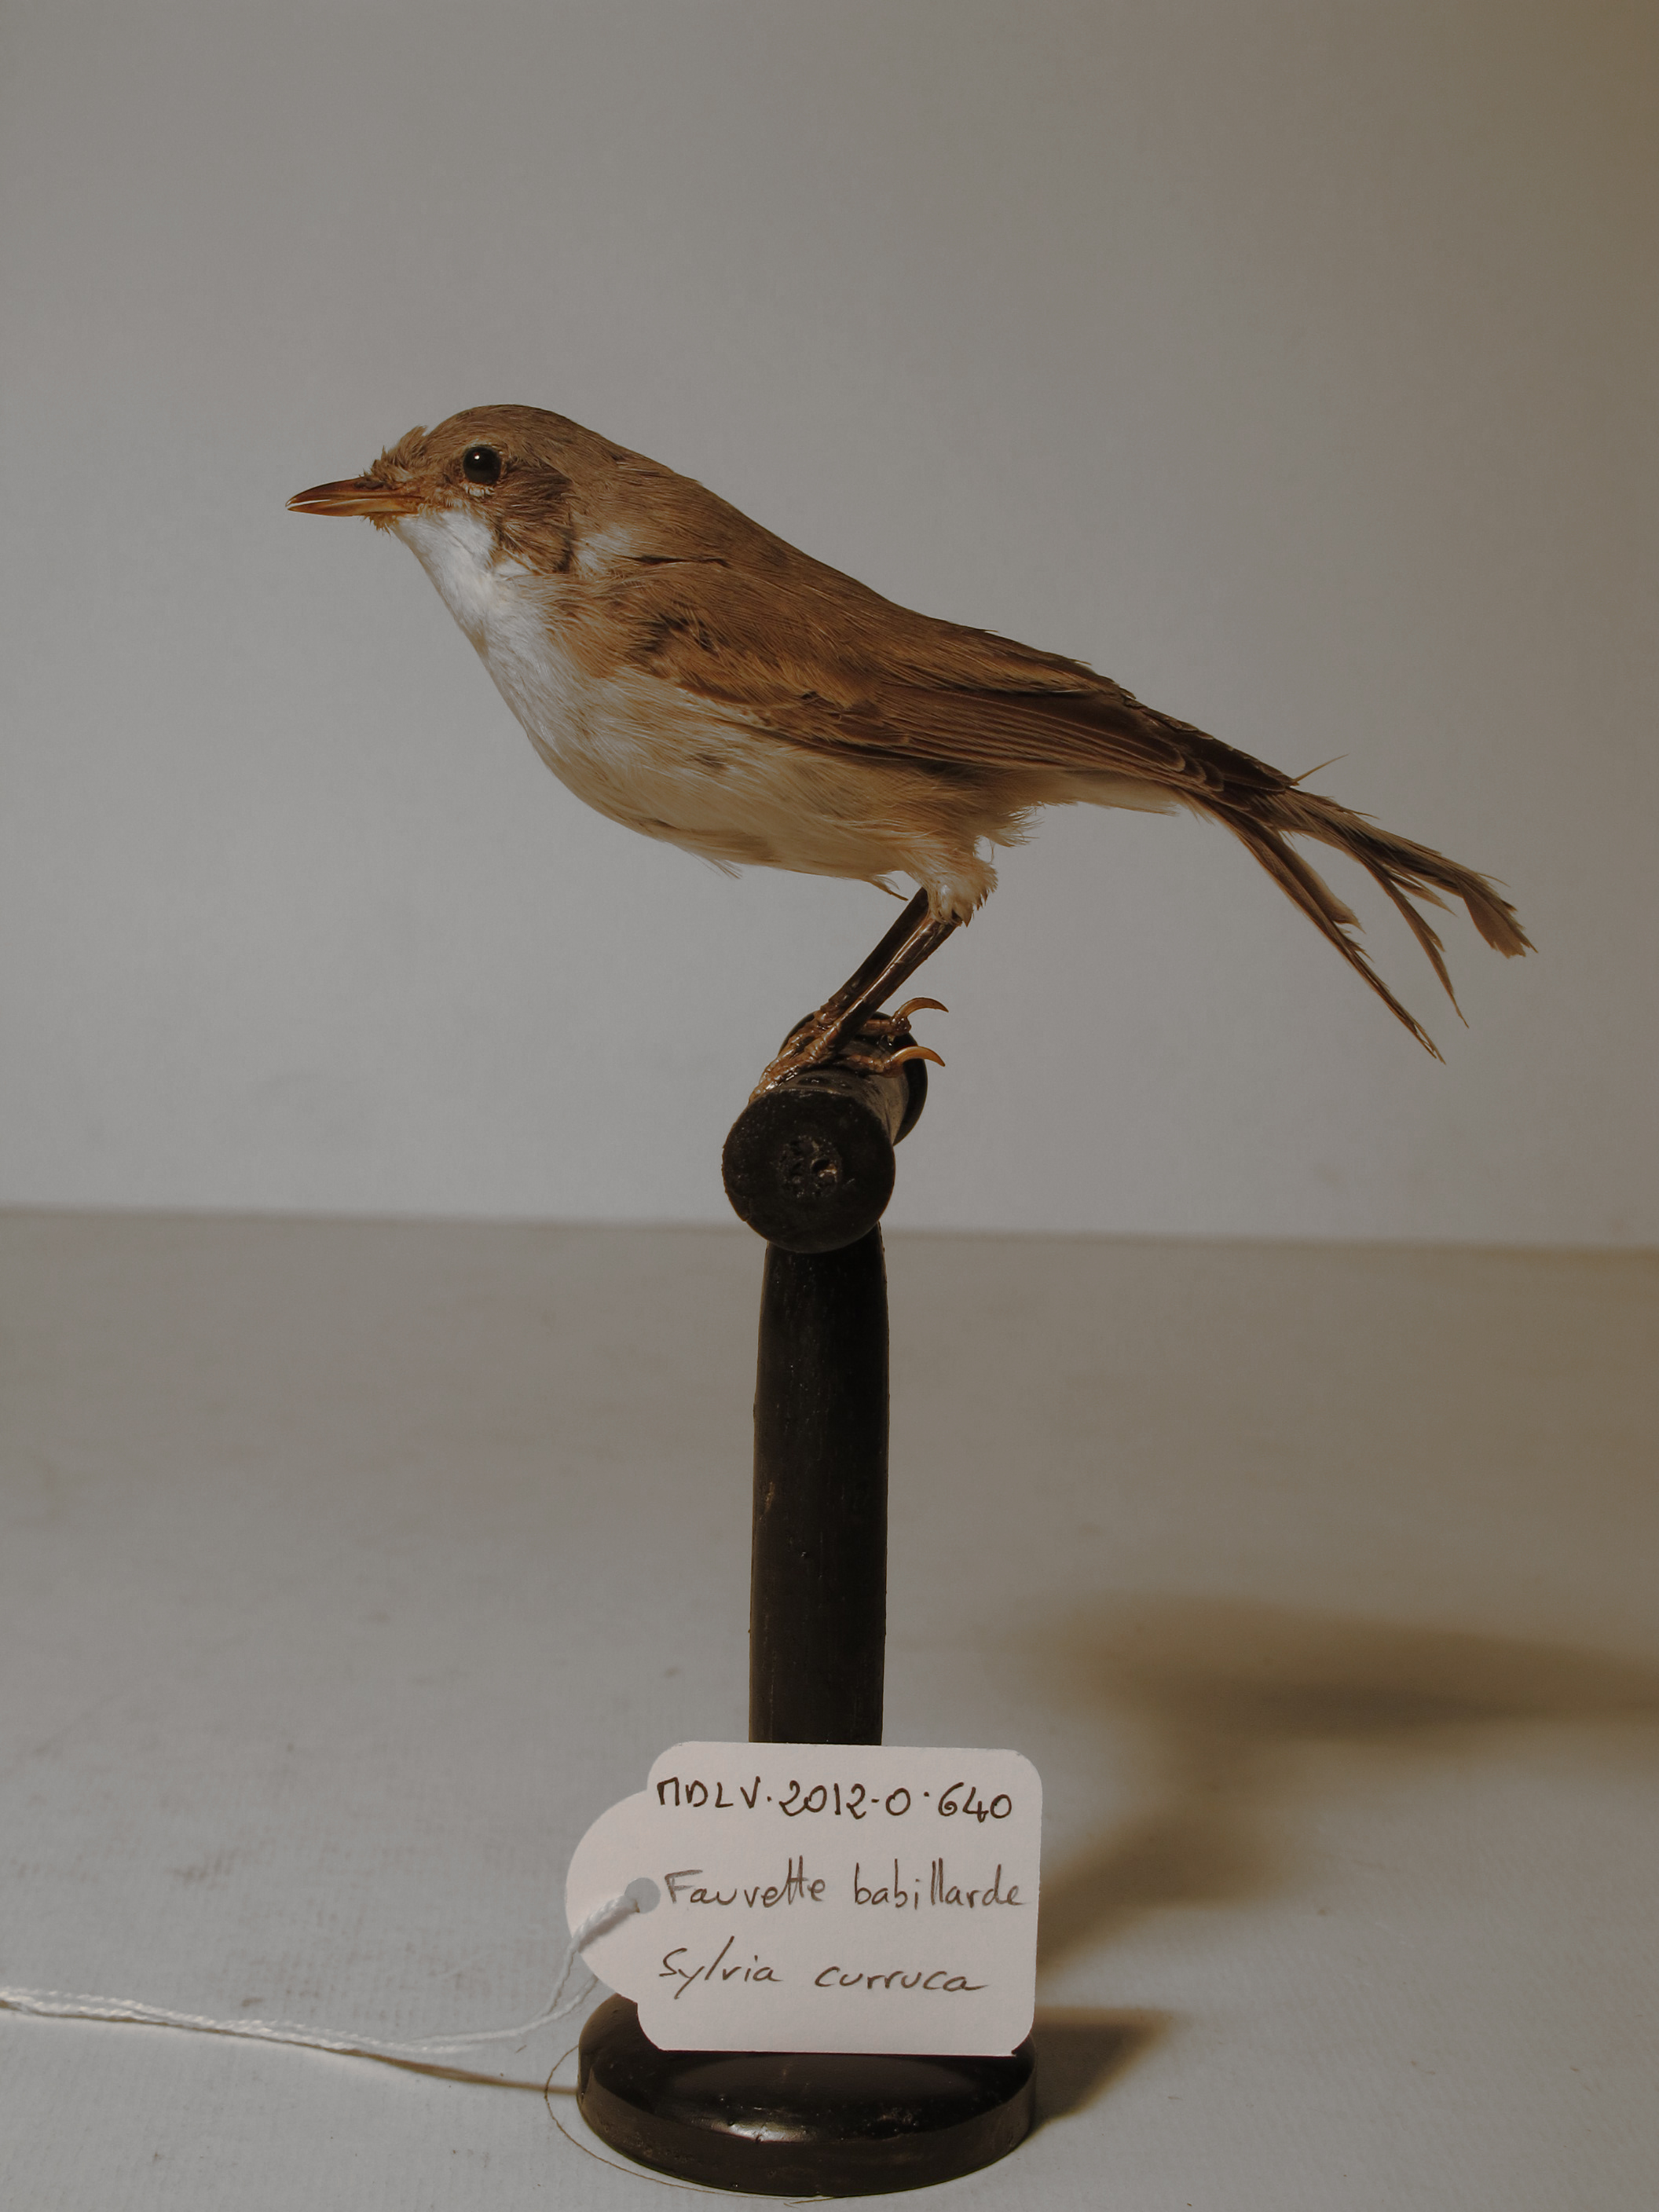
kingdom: Animalia
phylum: Chordata
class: Aves
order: Passeriformes
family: Sylviidae
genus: Sylvia
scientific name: Sylvia curruca
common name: Lesser Whitethroat
